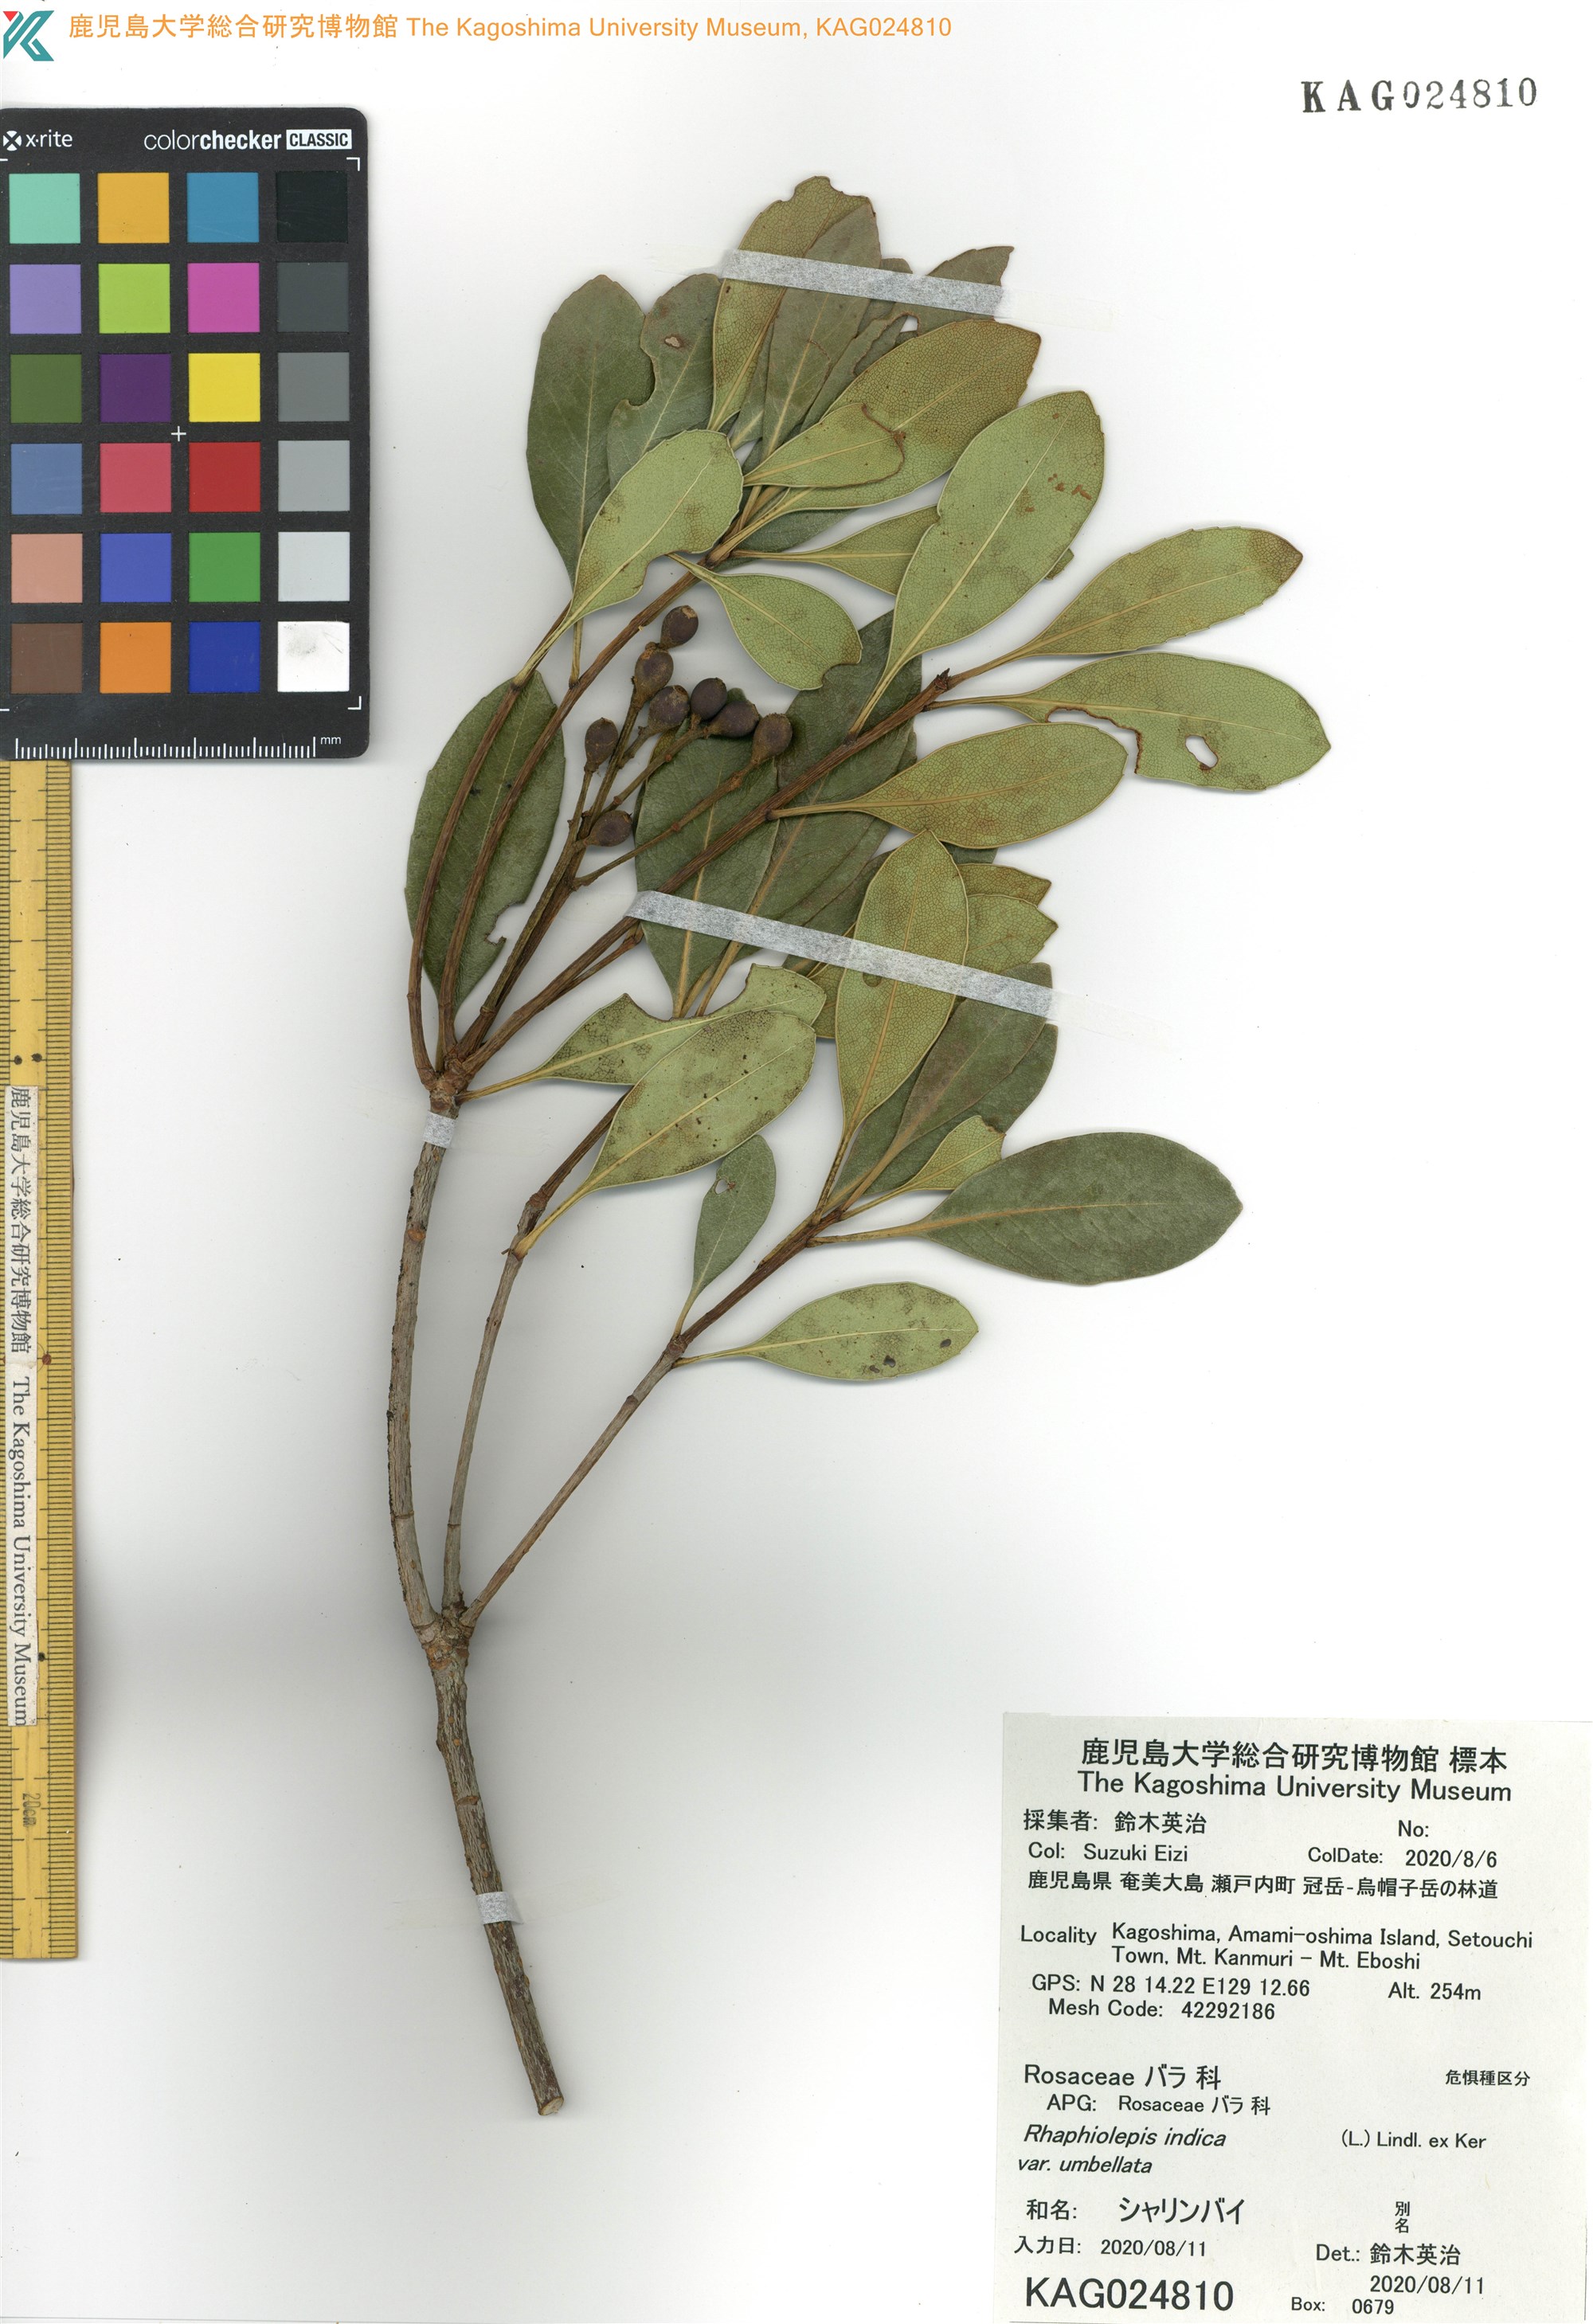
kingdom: Plantae
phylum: Tracheophyta
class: Magnoliopsida
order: Rosales
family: Rosaceae
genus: Rhaphiolepis
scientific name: Rhaphiolepis umbellata
